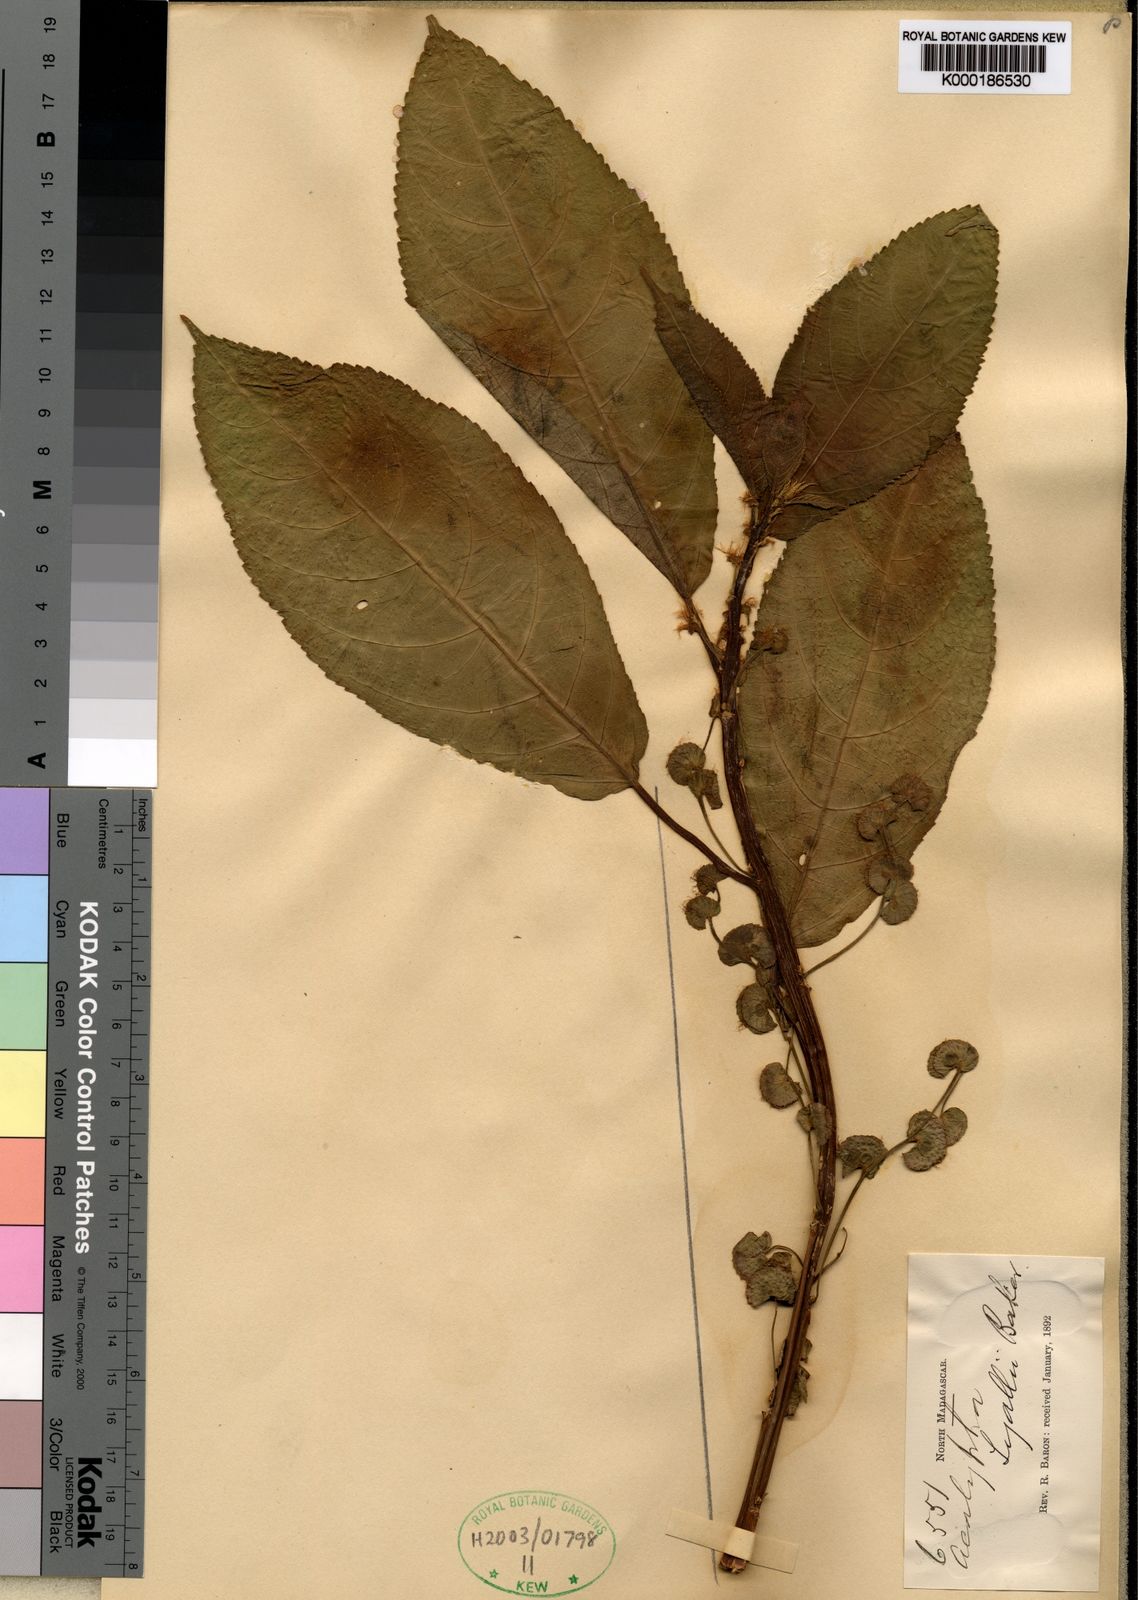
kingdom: Plantae
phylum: Tracheophyta
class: Magnoliopsida
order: Malpighiales
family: Euphorbiaceae
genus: Acalypha
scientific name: Acalypha fasciculata
